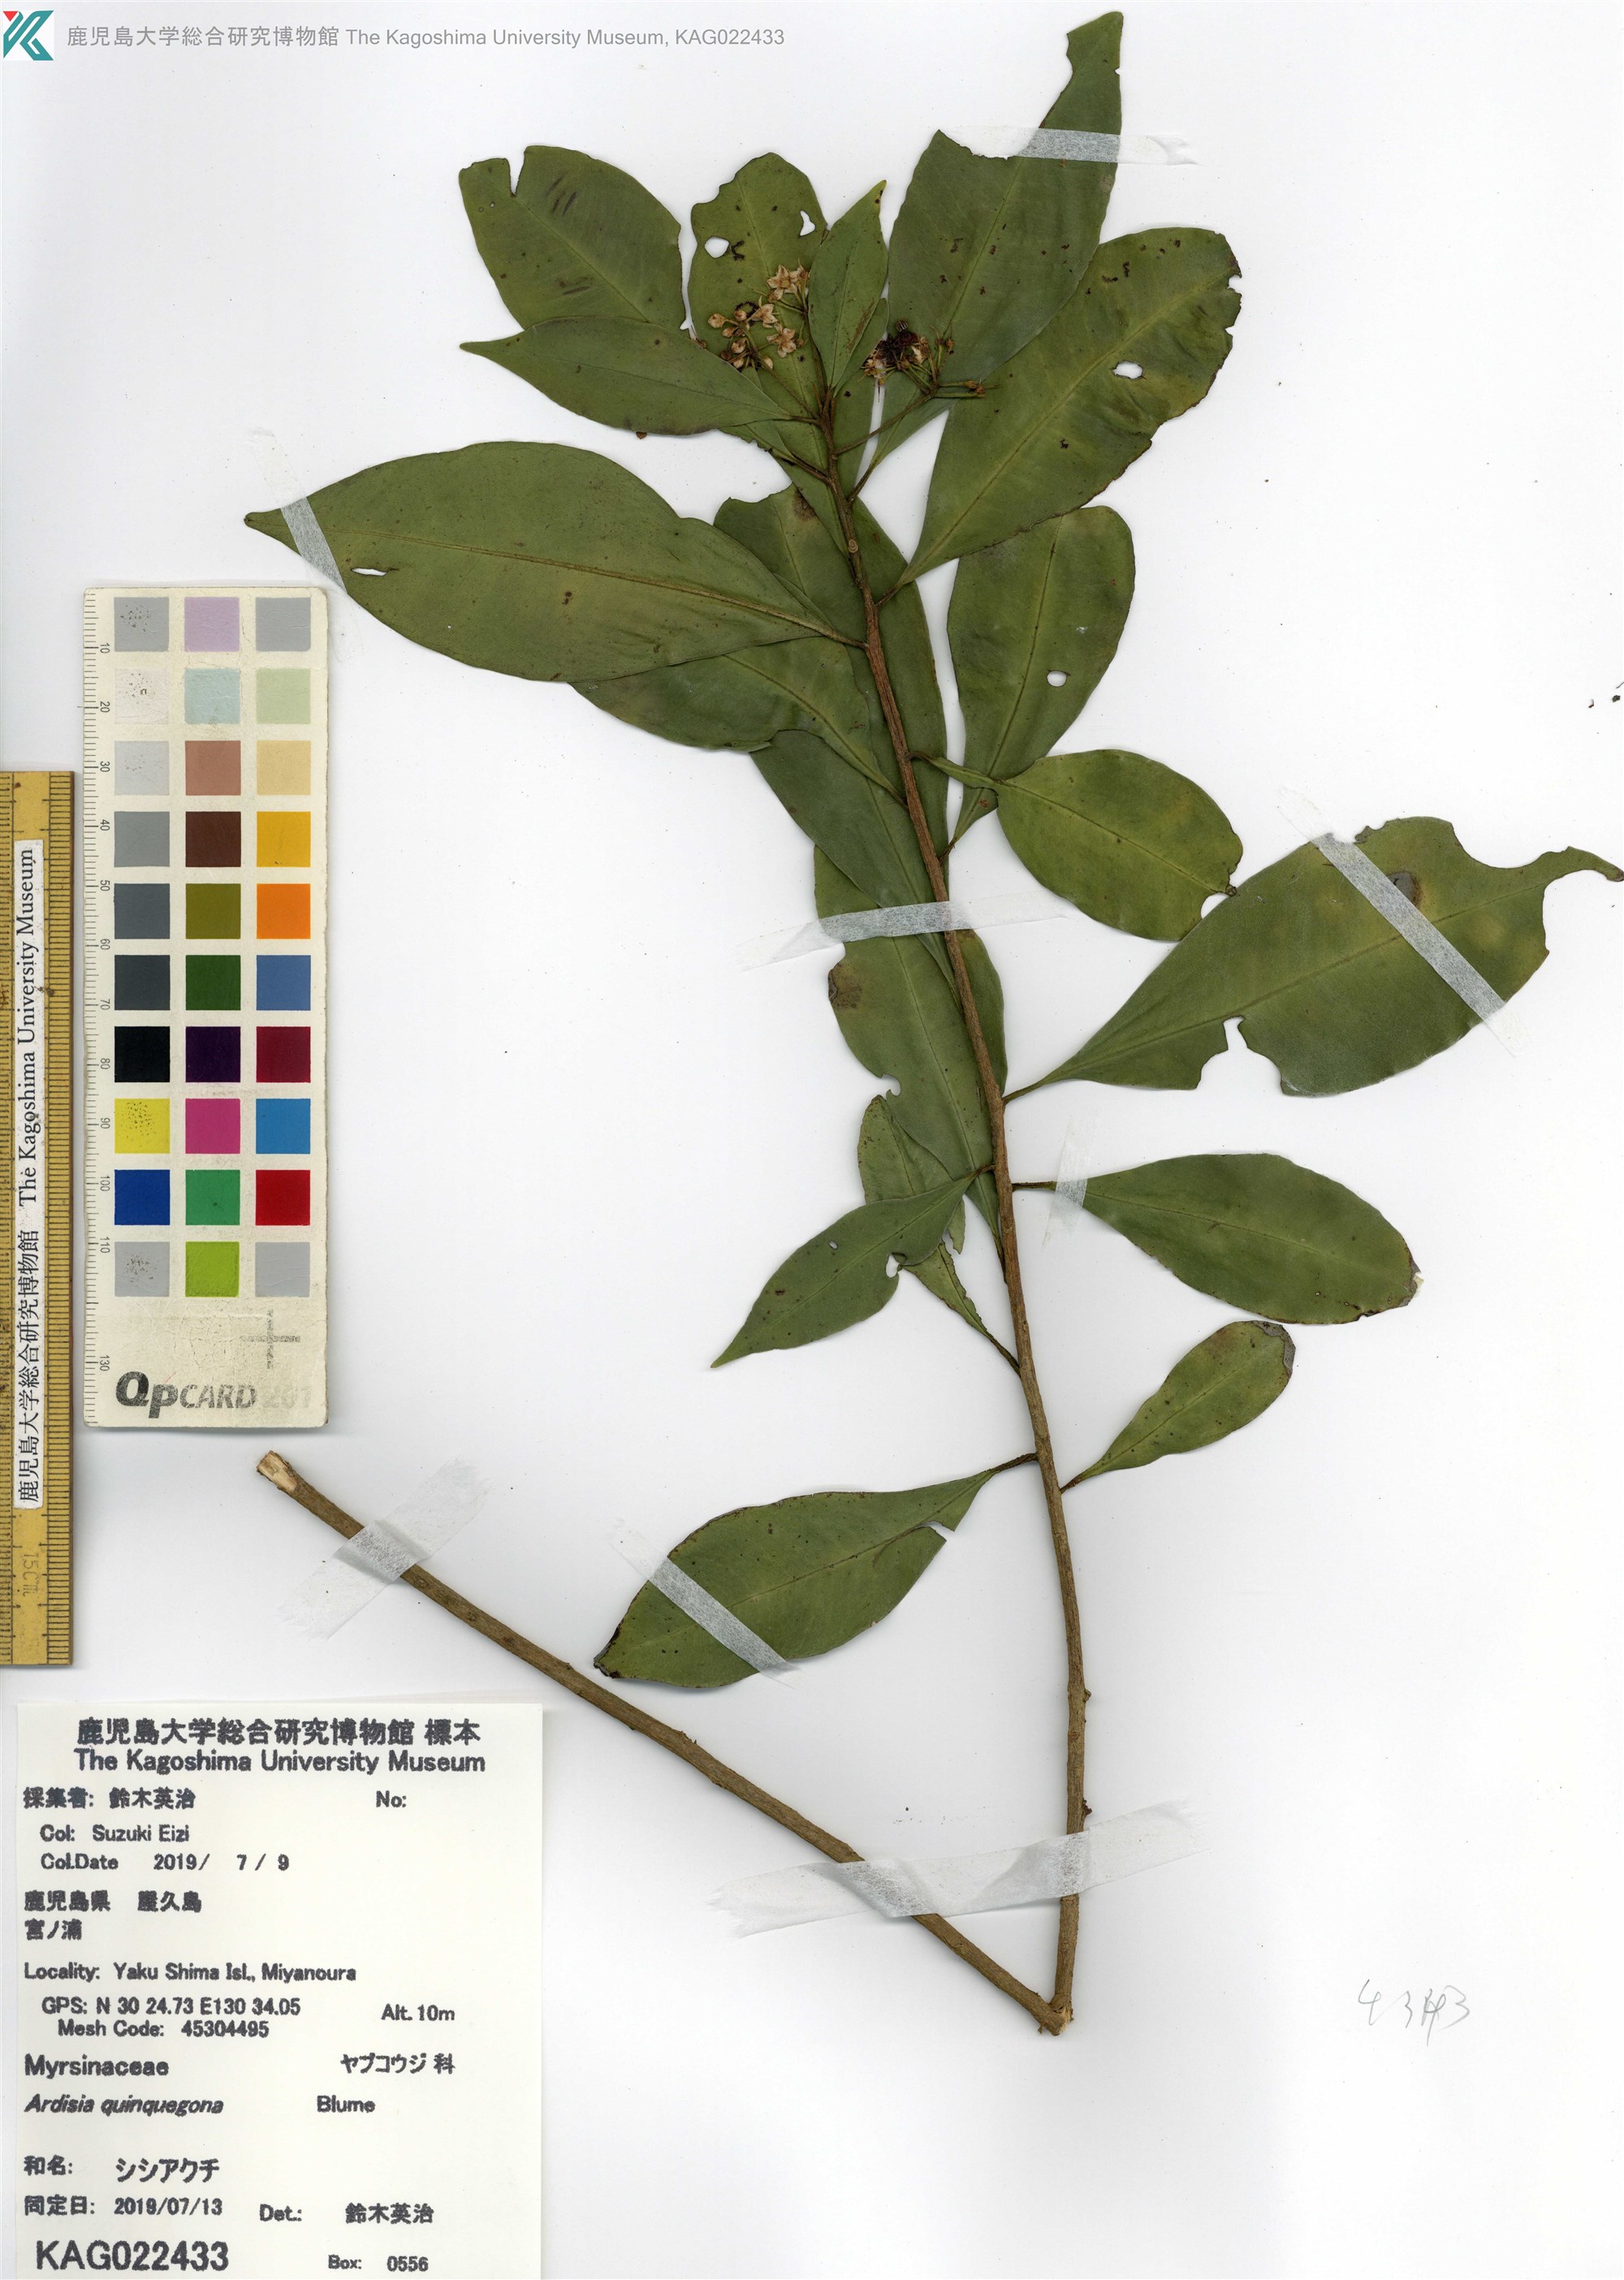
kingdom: Plantae
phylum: Tracheophyta
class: Magnoliopsida
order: Ericales
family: Primulaceae
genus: Ardisia
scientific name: Ardisia quinquegona
